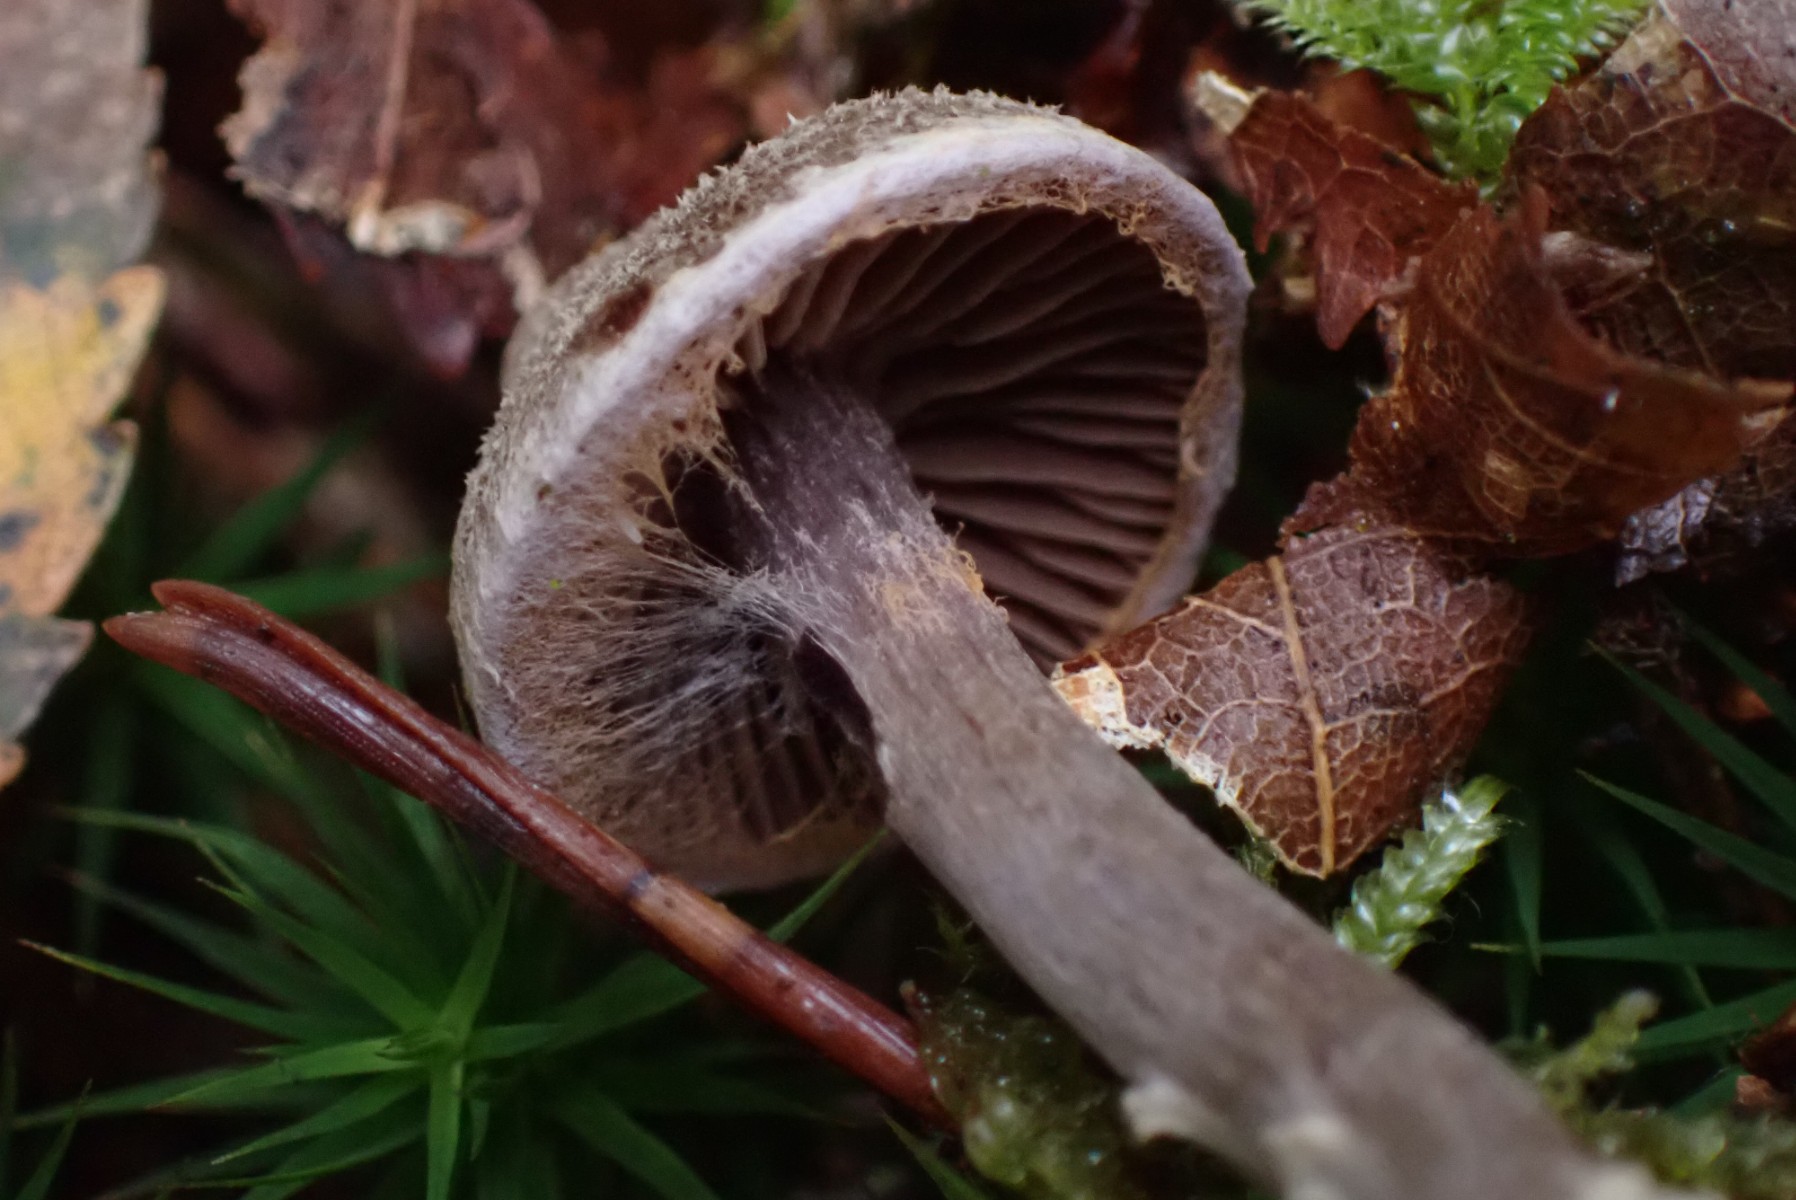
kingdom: Fungi
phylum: Basidiomycota
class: Agaricomycetes
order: Agaricales
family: Cortinariaceae
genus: Cortinarius
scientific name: Cortinarius flexipes
